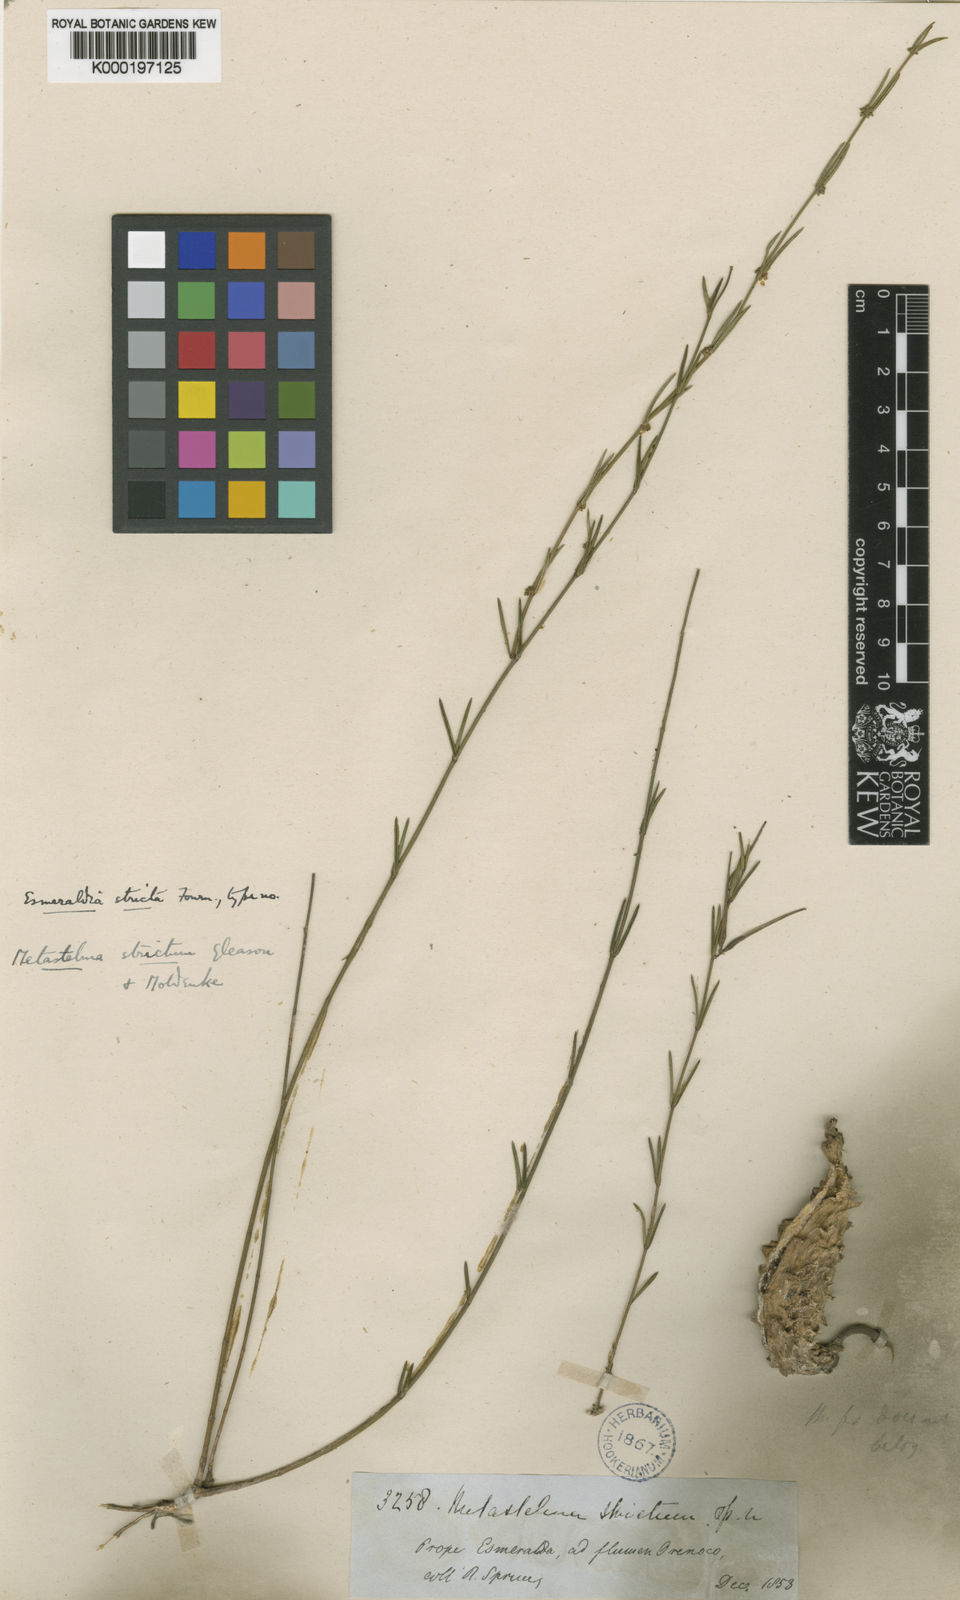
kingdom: Plantae
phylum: Tracheophyta
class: Magnoliopsida
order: Gentianales
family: Apocynaceae
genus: Tassadia
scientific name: Tassadia stricta
